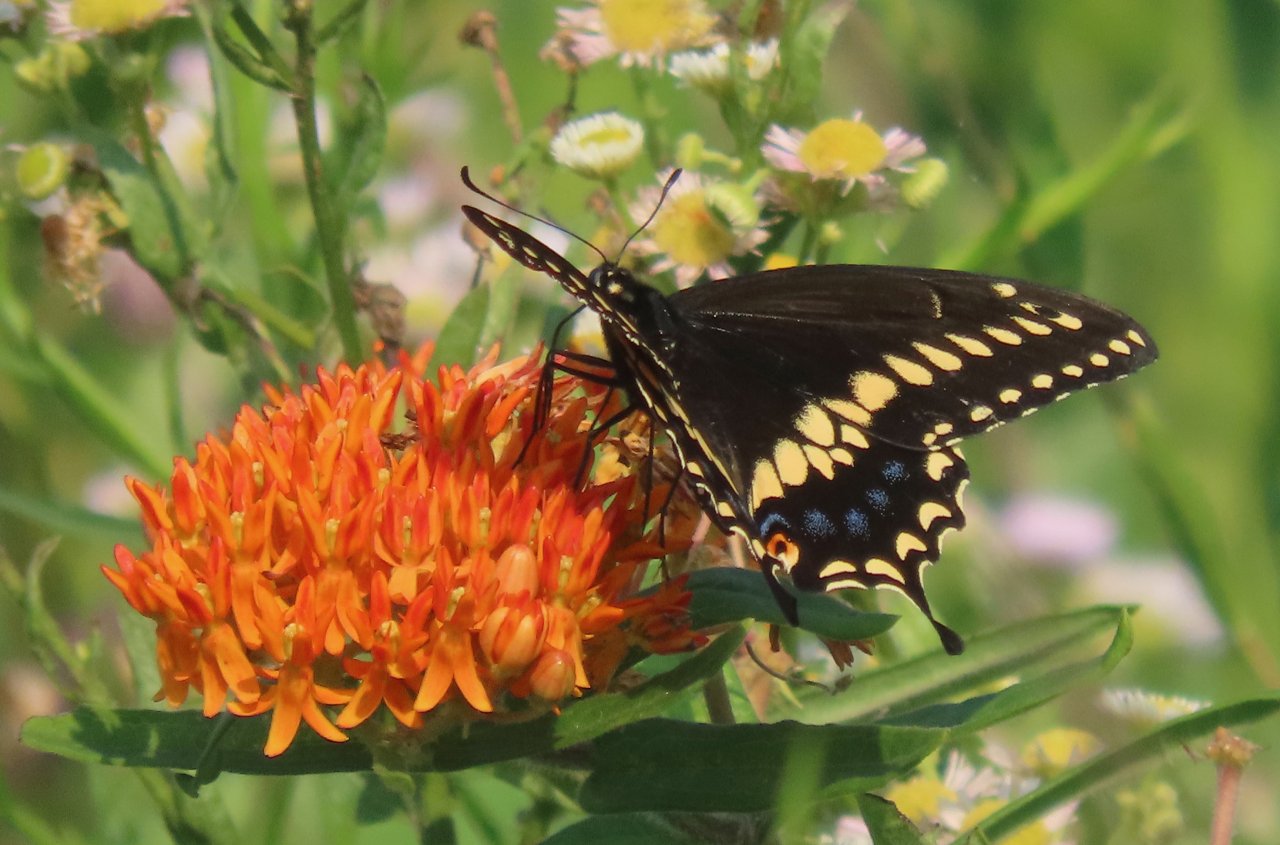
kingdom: Animalia
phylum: Arthropoda
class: Insecta
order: Lepidoptera
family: Papilionidae
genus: Papilio
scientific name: Papilio polyxenes
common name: Black Swallowtail
